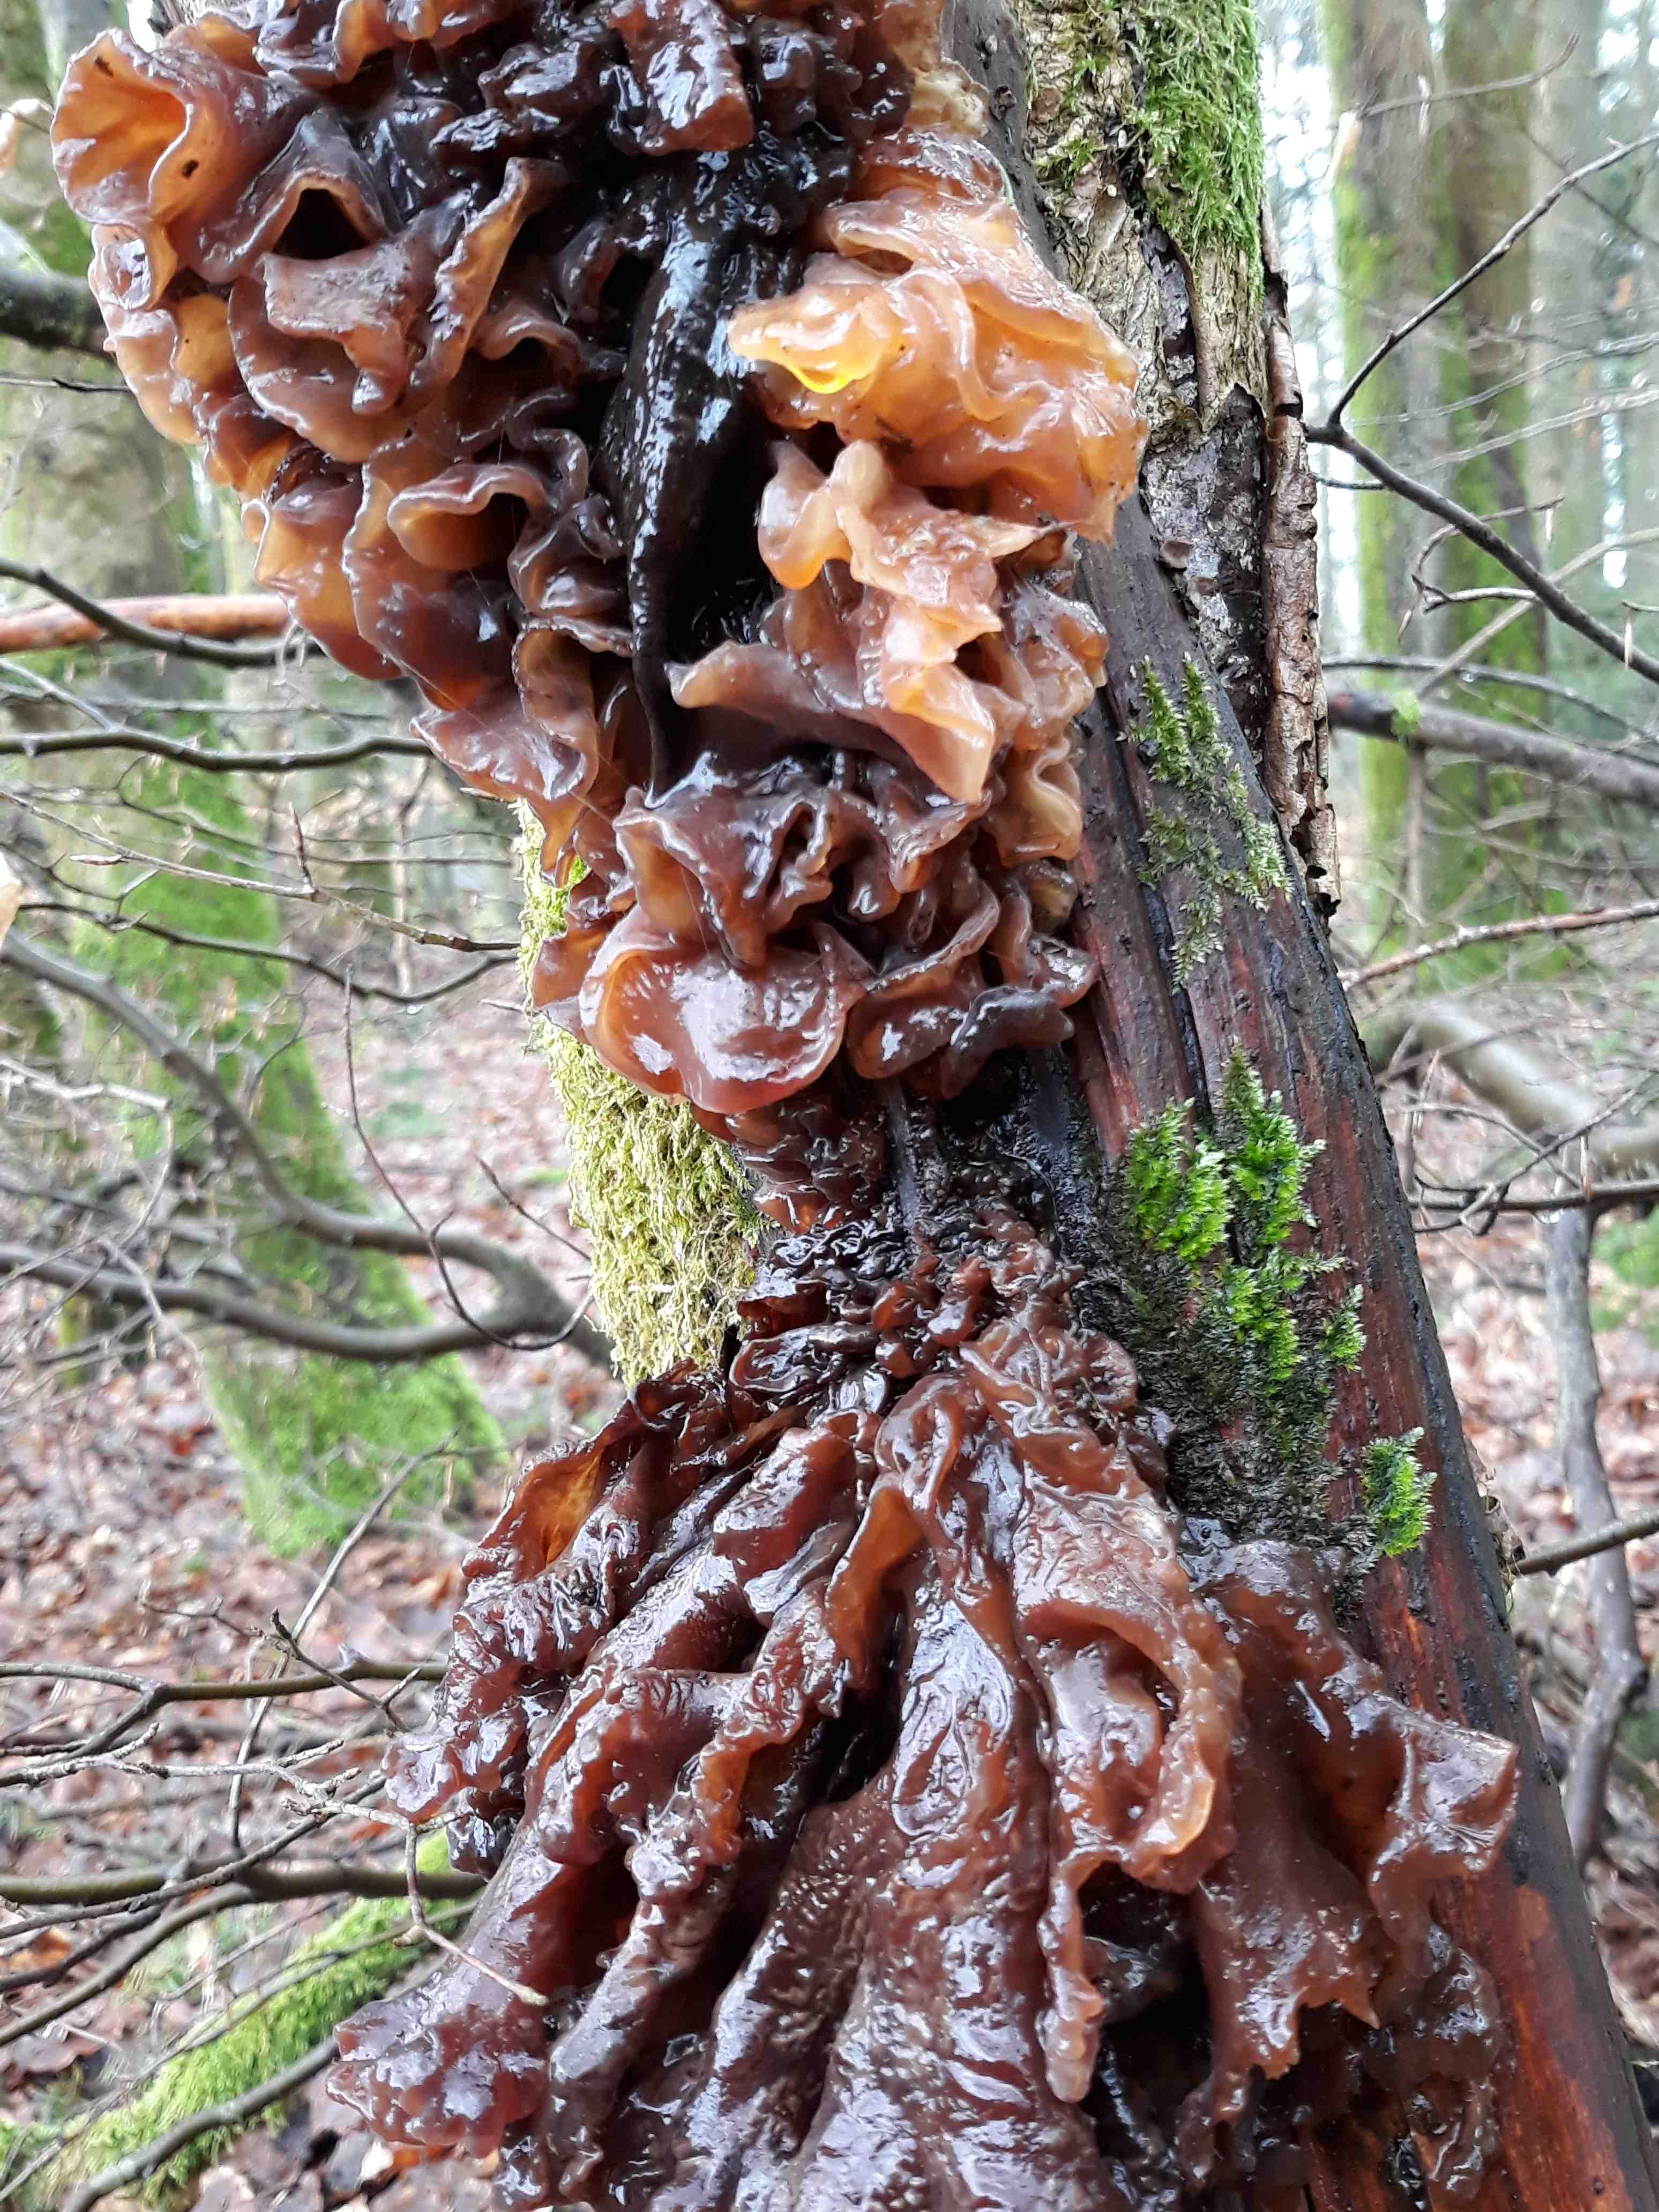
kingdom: Fungi
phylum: Basidiomycota
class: Tremellomycetes
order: Tremellales
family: Tremellaceae
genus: Phaeotremella
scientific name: Phaeotremella frondosa
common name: kæmpe-bævresvamp
